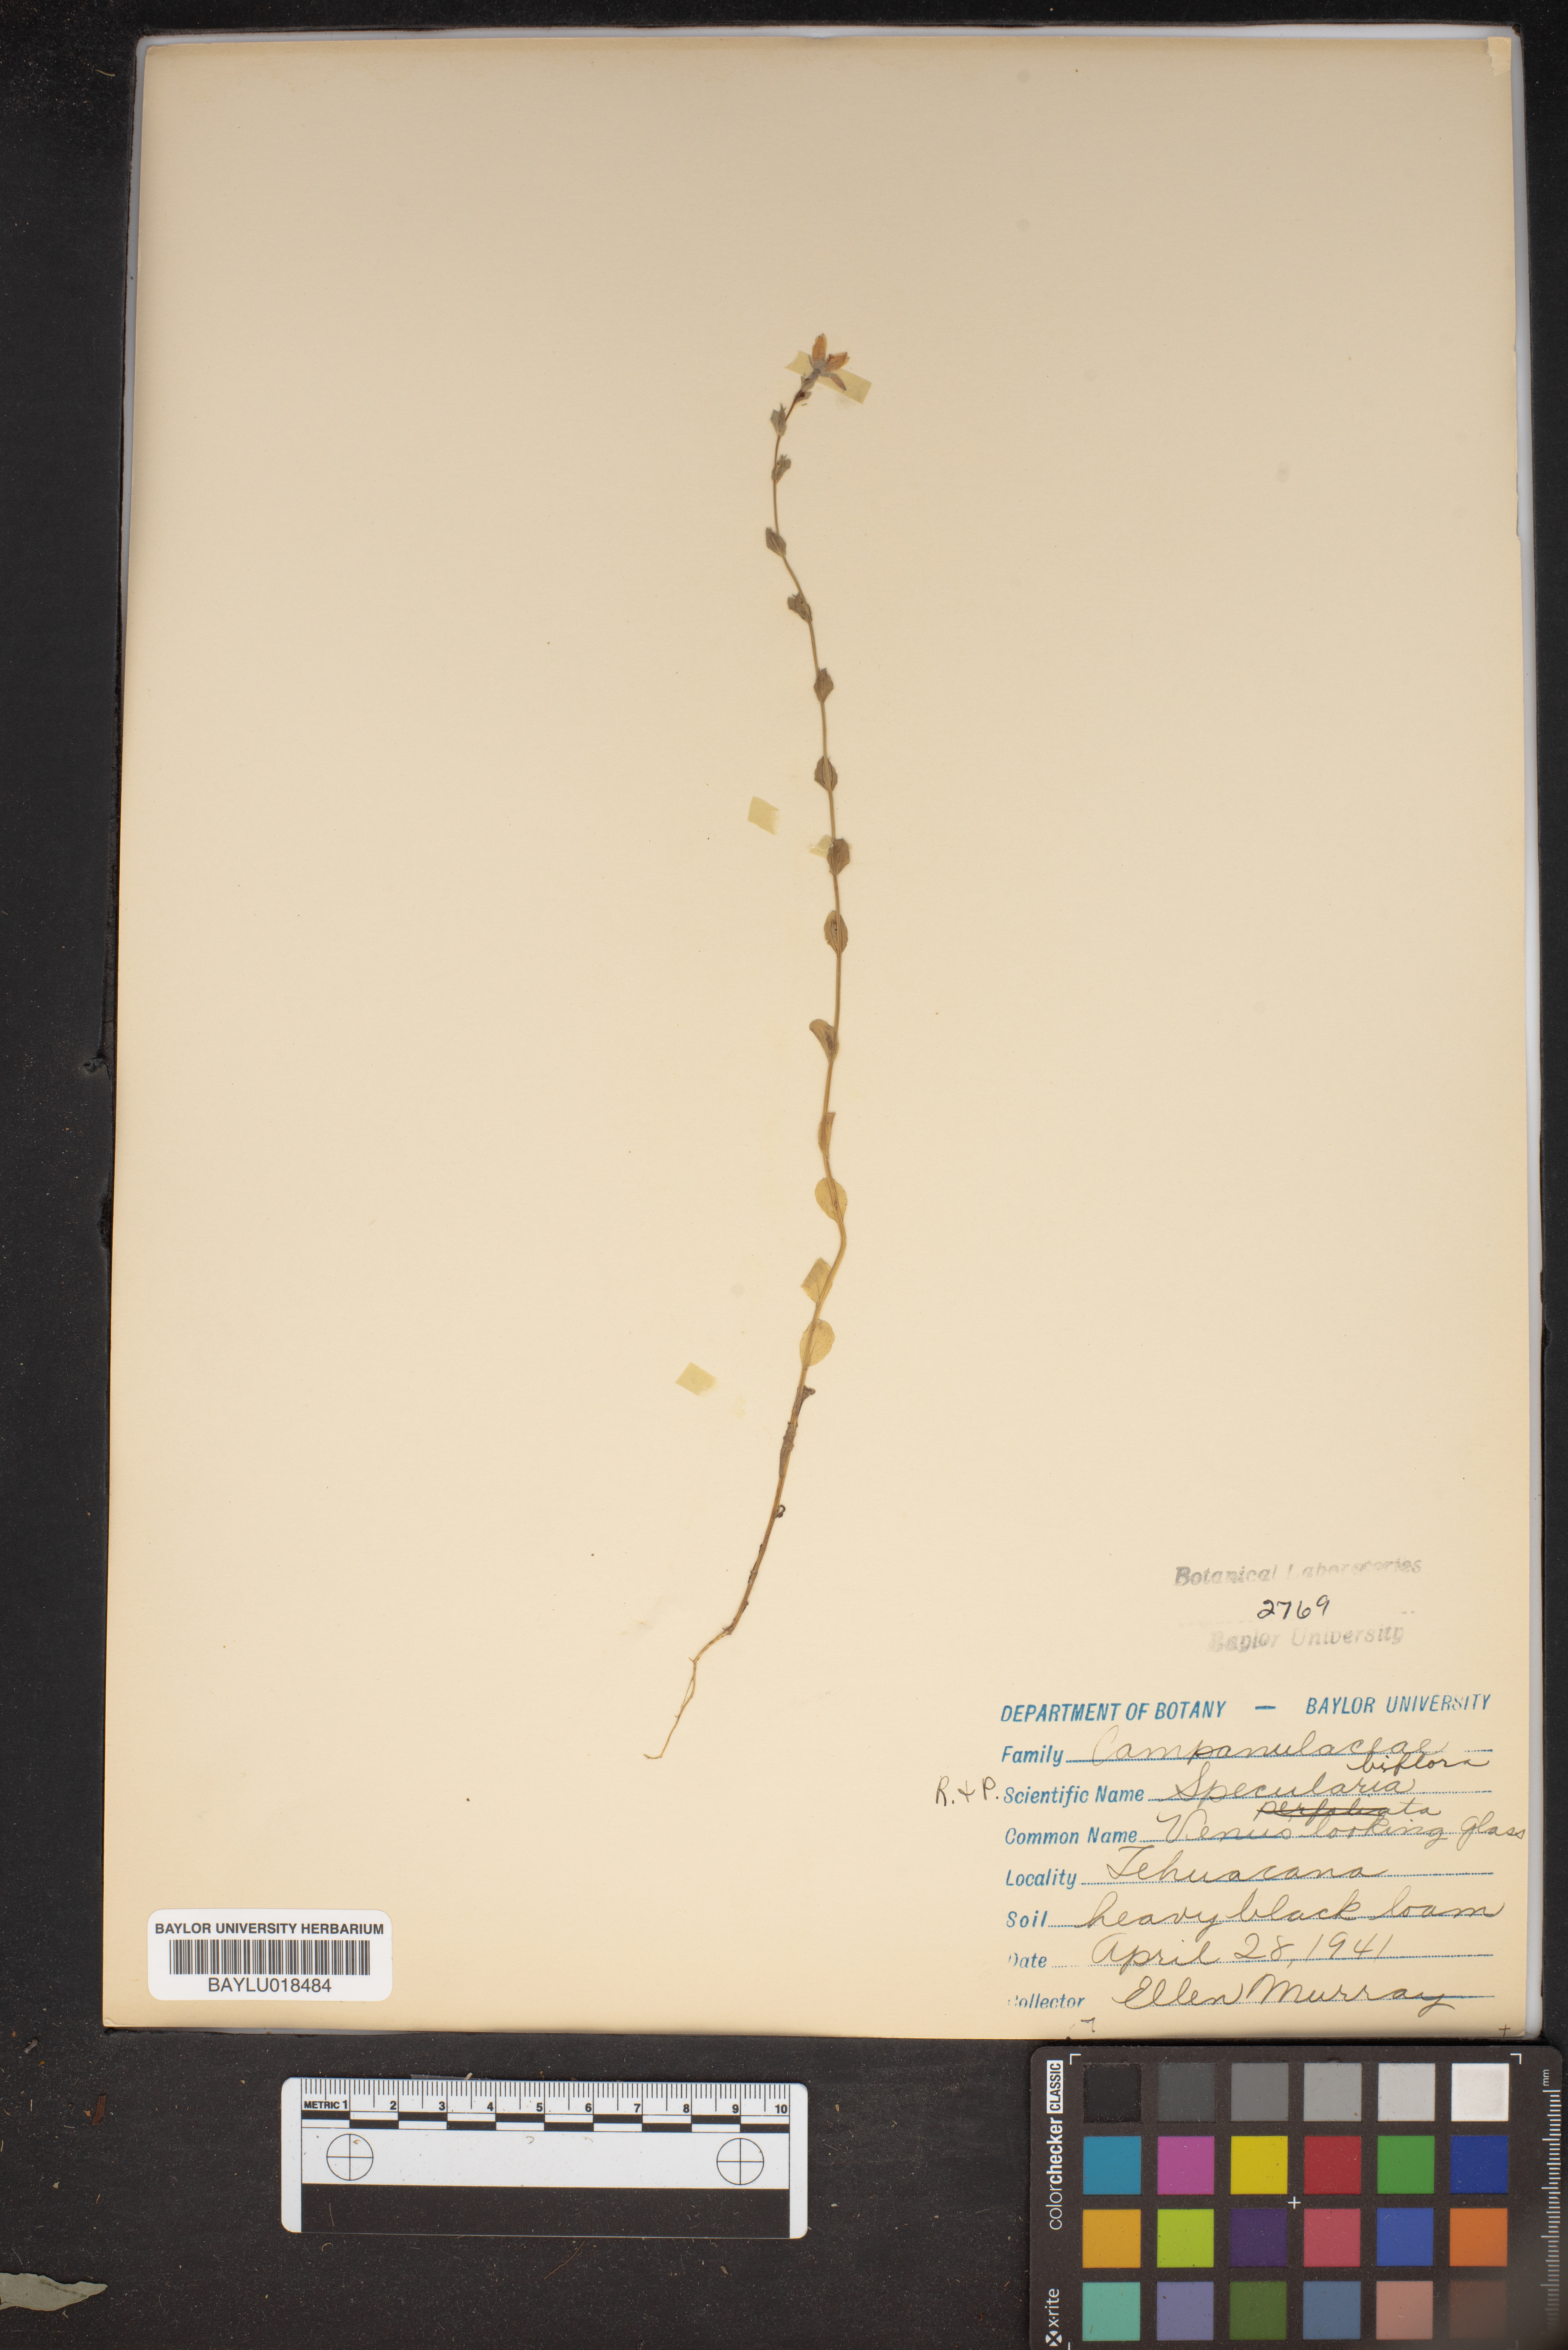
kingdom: Plantae
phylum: Tracheophyta
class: Magnoliopsida
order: Asterales
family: Campanulaceae
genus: Triodanis
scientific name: Triodanis perfoliata
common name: Clasping venus' looking-glass
